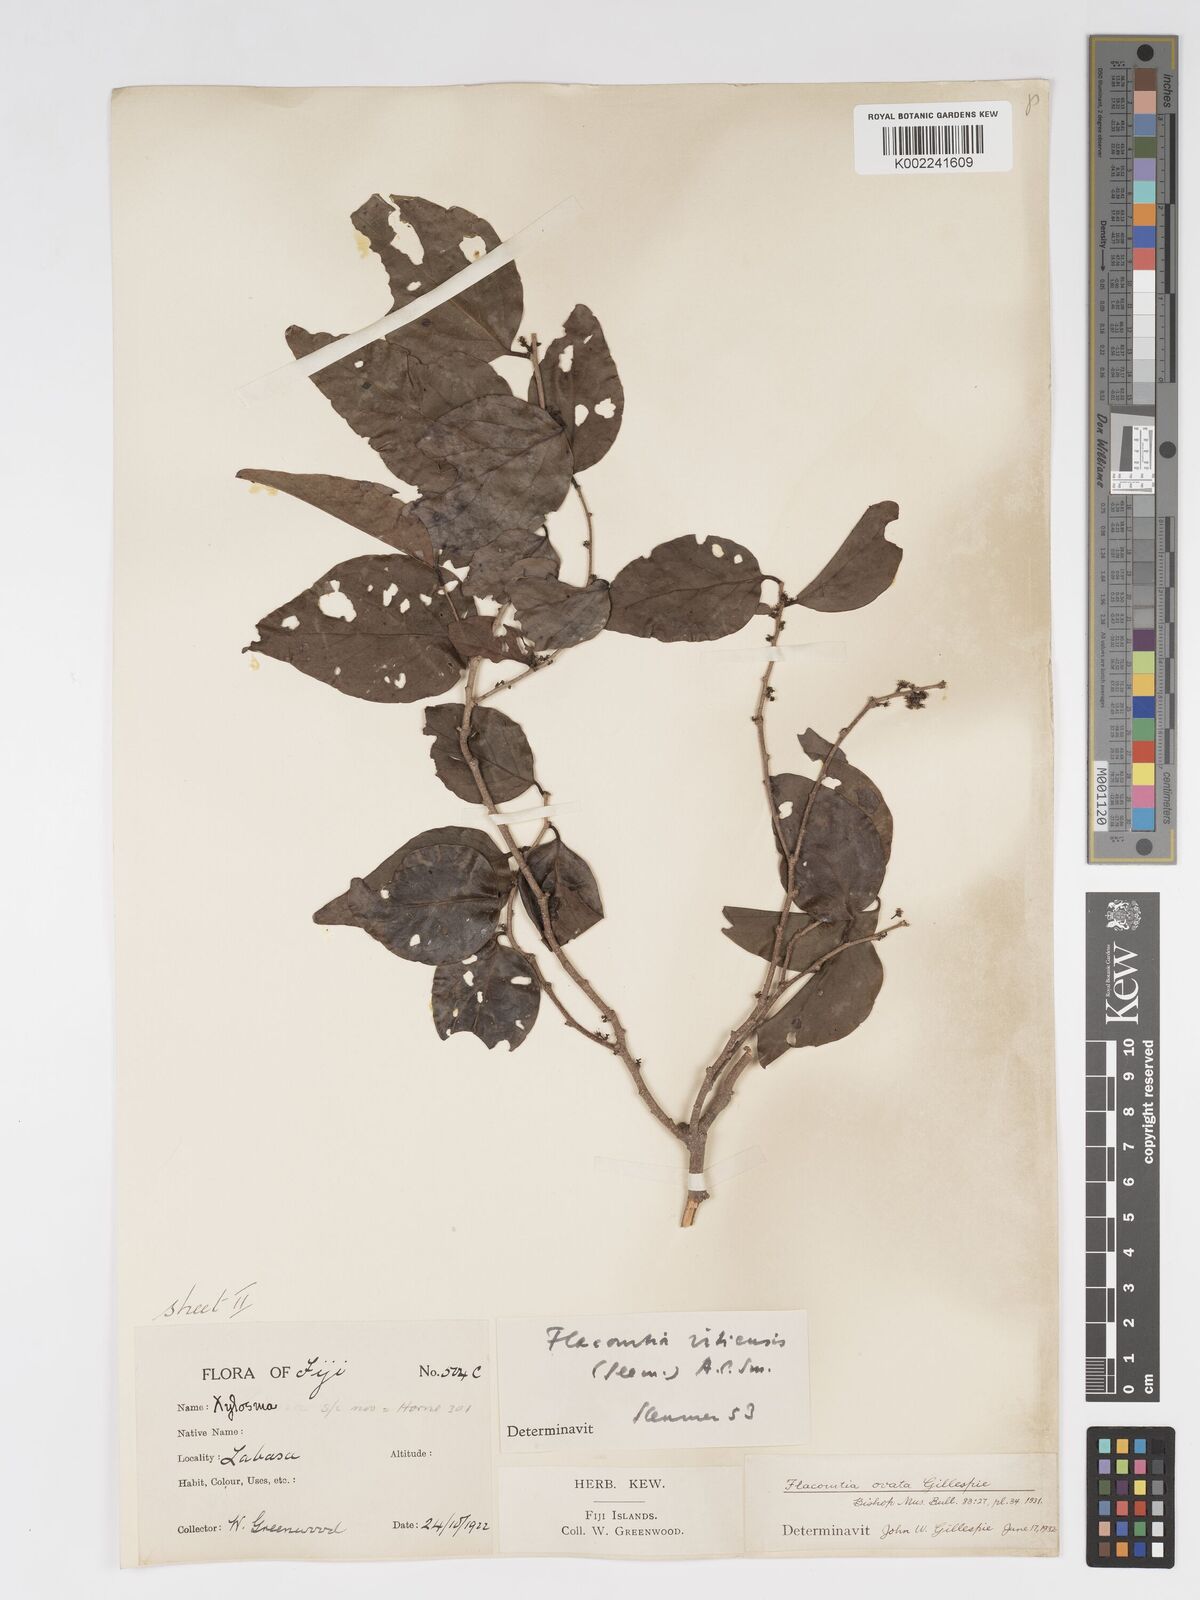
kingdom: Plantae
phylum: Tracheophyta
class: Magnoliopsida
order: Malpighiales
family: Salicaceae
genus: Flacourtia
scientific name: Flacourtia vitiensis
